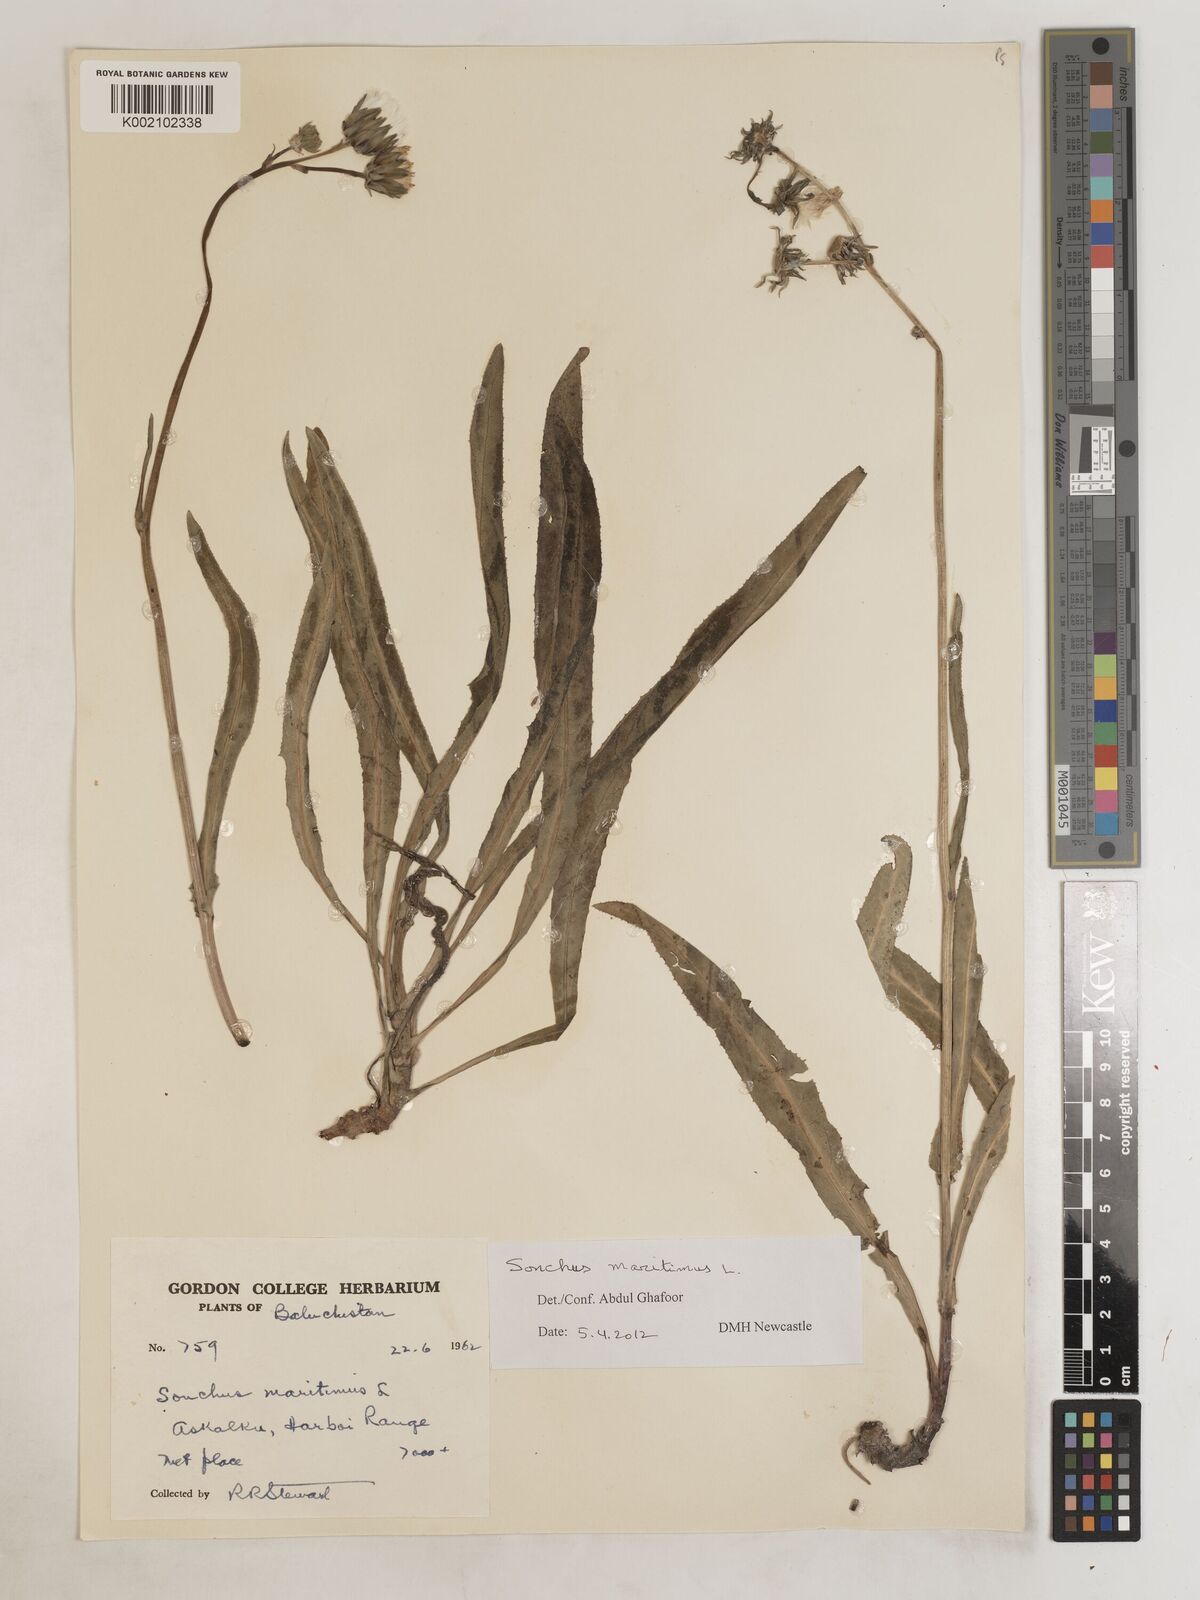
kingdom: Plantae
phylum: Tracheophyta
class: Magnoliopsida
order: Asterales
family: Asteraceae
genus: Sonchus
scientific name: Sonchus maritimus
